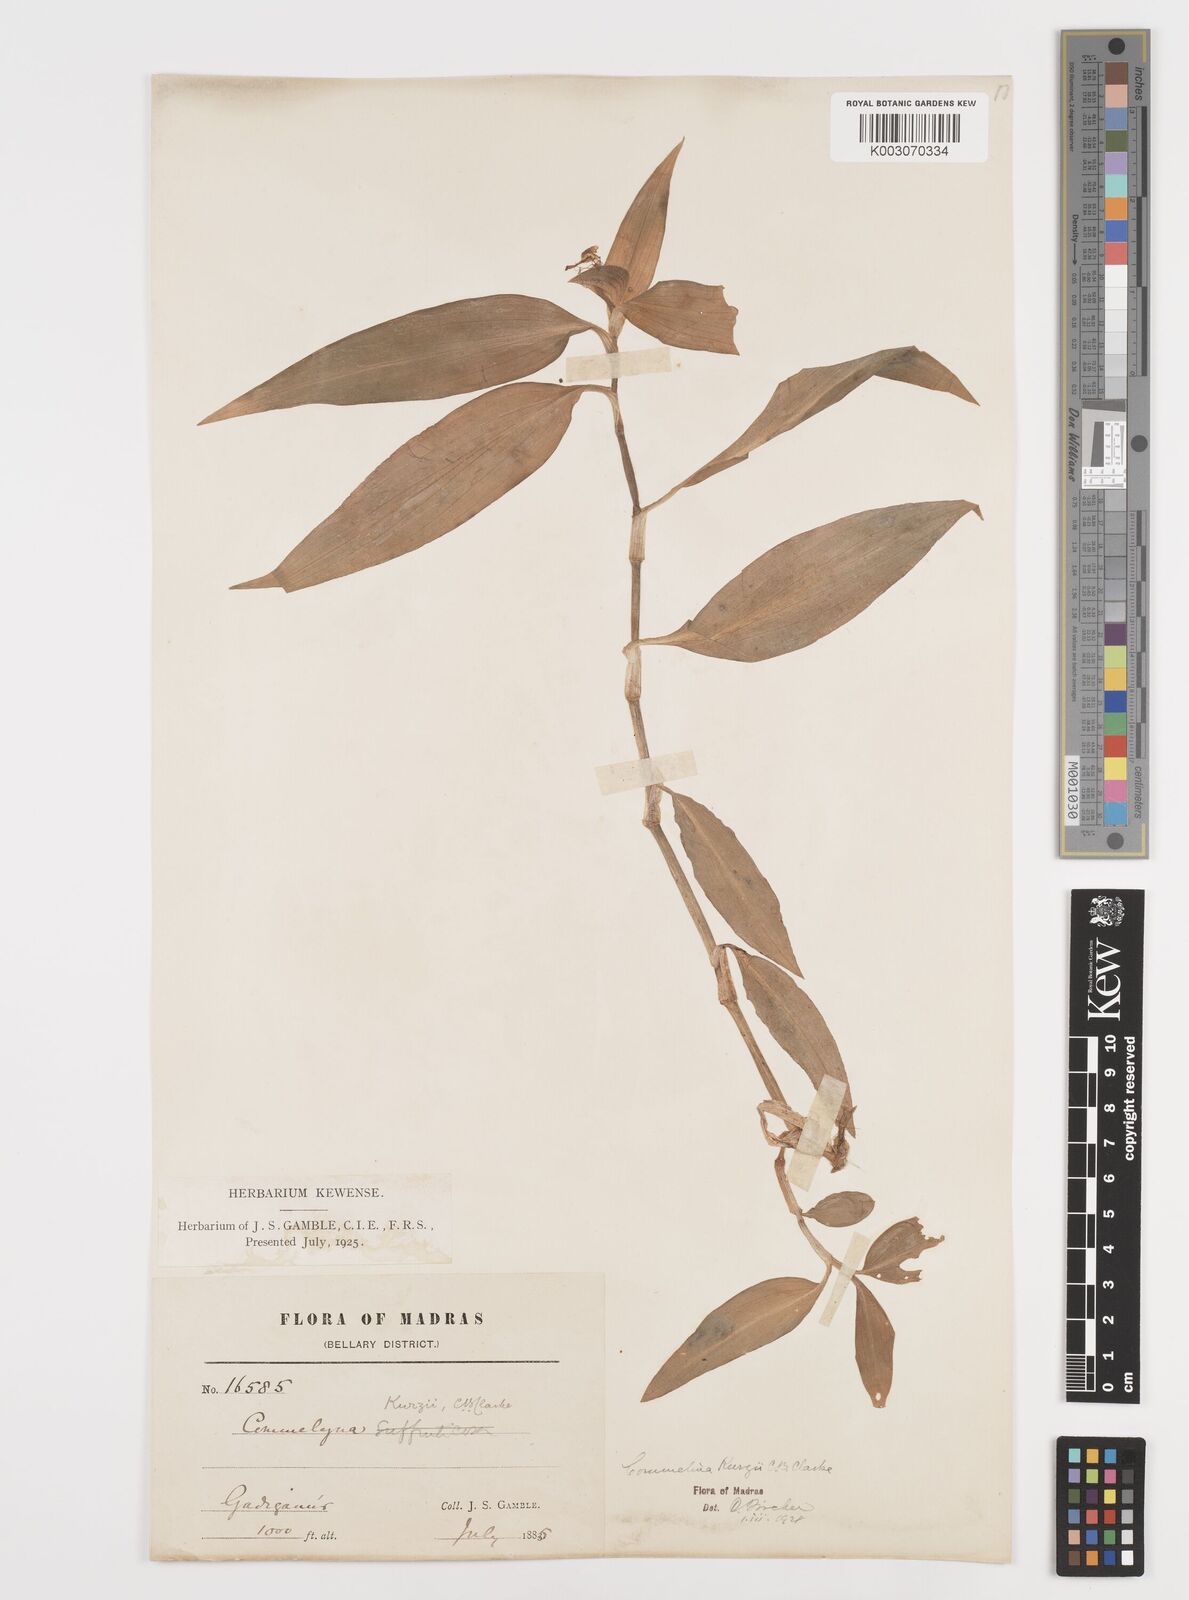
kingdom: Plantae
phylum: Tracheophyta
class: Liliopsida
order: Commelinales
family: Commelinaceae
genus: Commelina
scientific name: Commelina undulata
